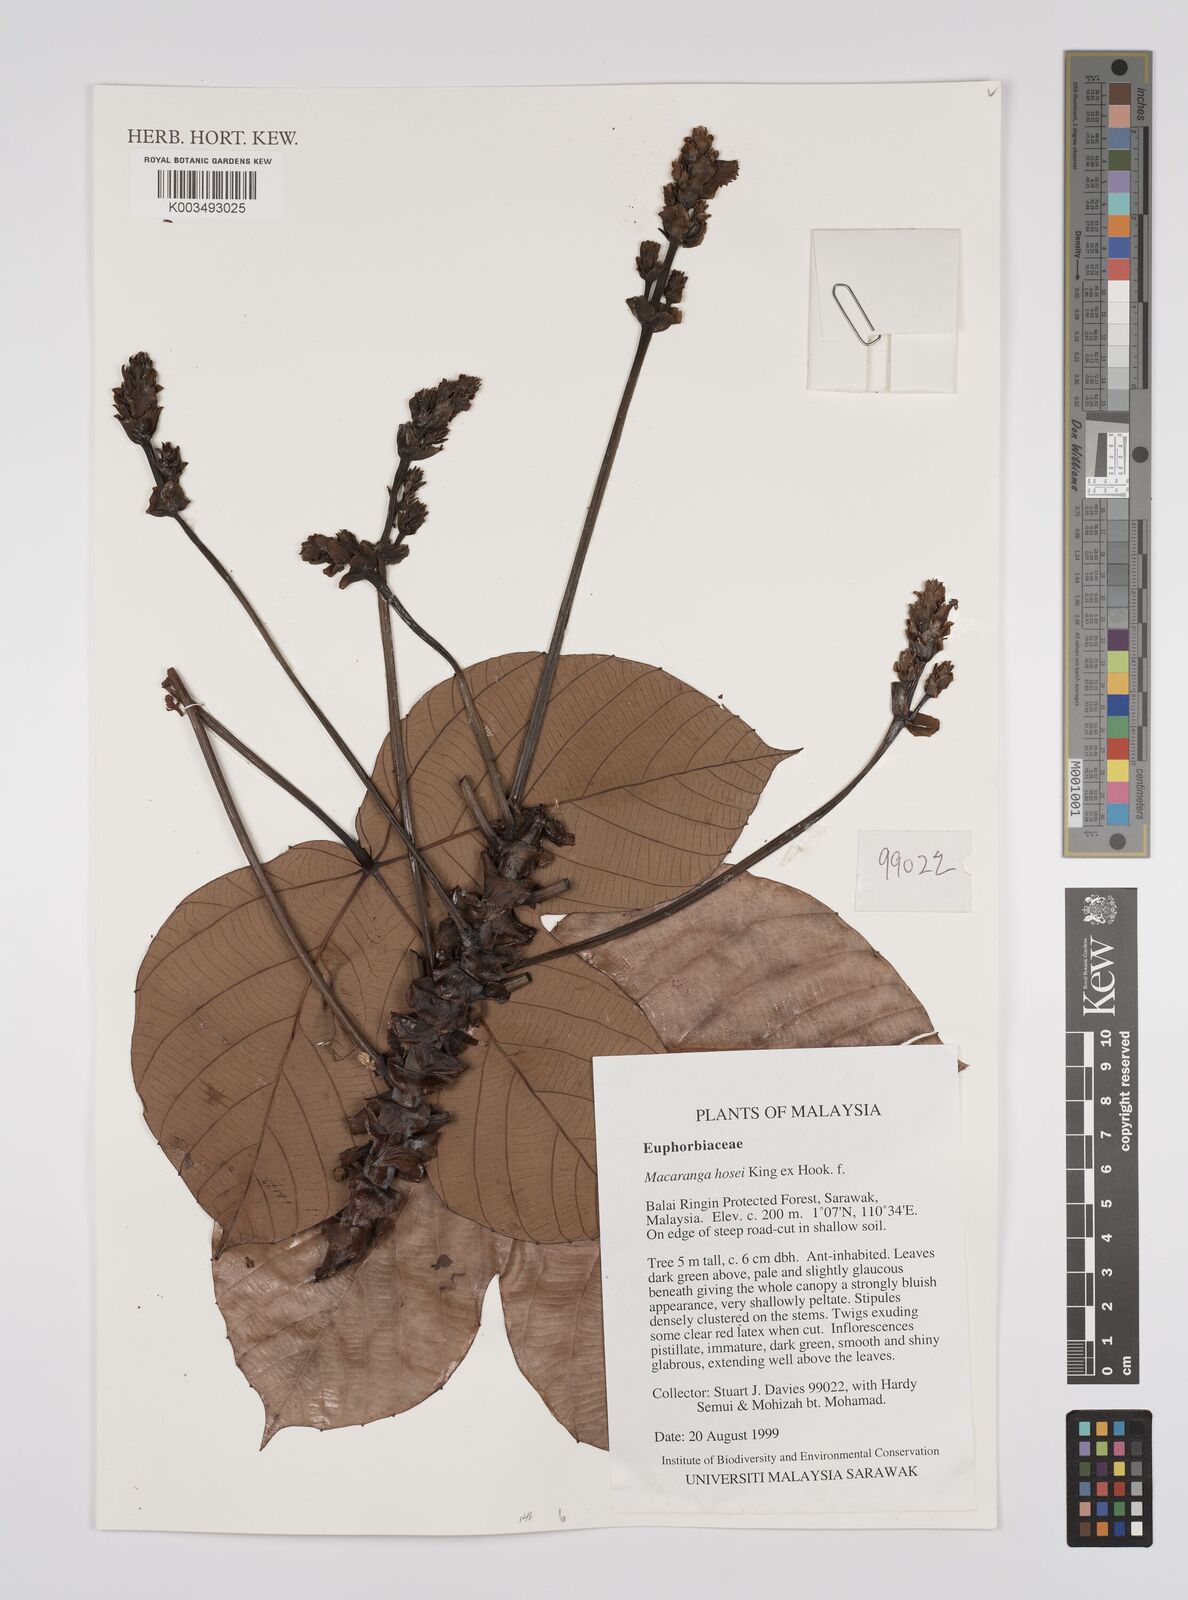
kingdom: Plantae
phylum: Tracheophyta
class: Magnoliopsida
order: Malpighiales
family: Euphorbiaceae
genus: Macaranga
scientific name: Macaranga hosei
